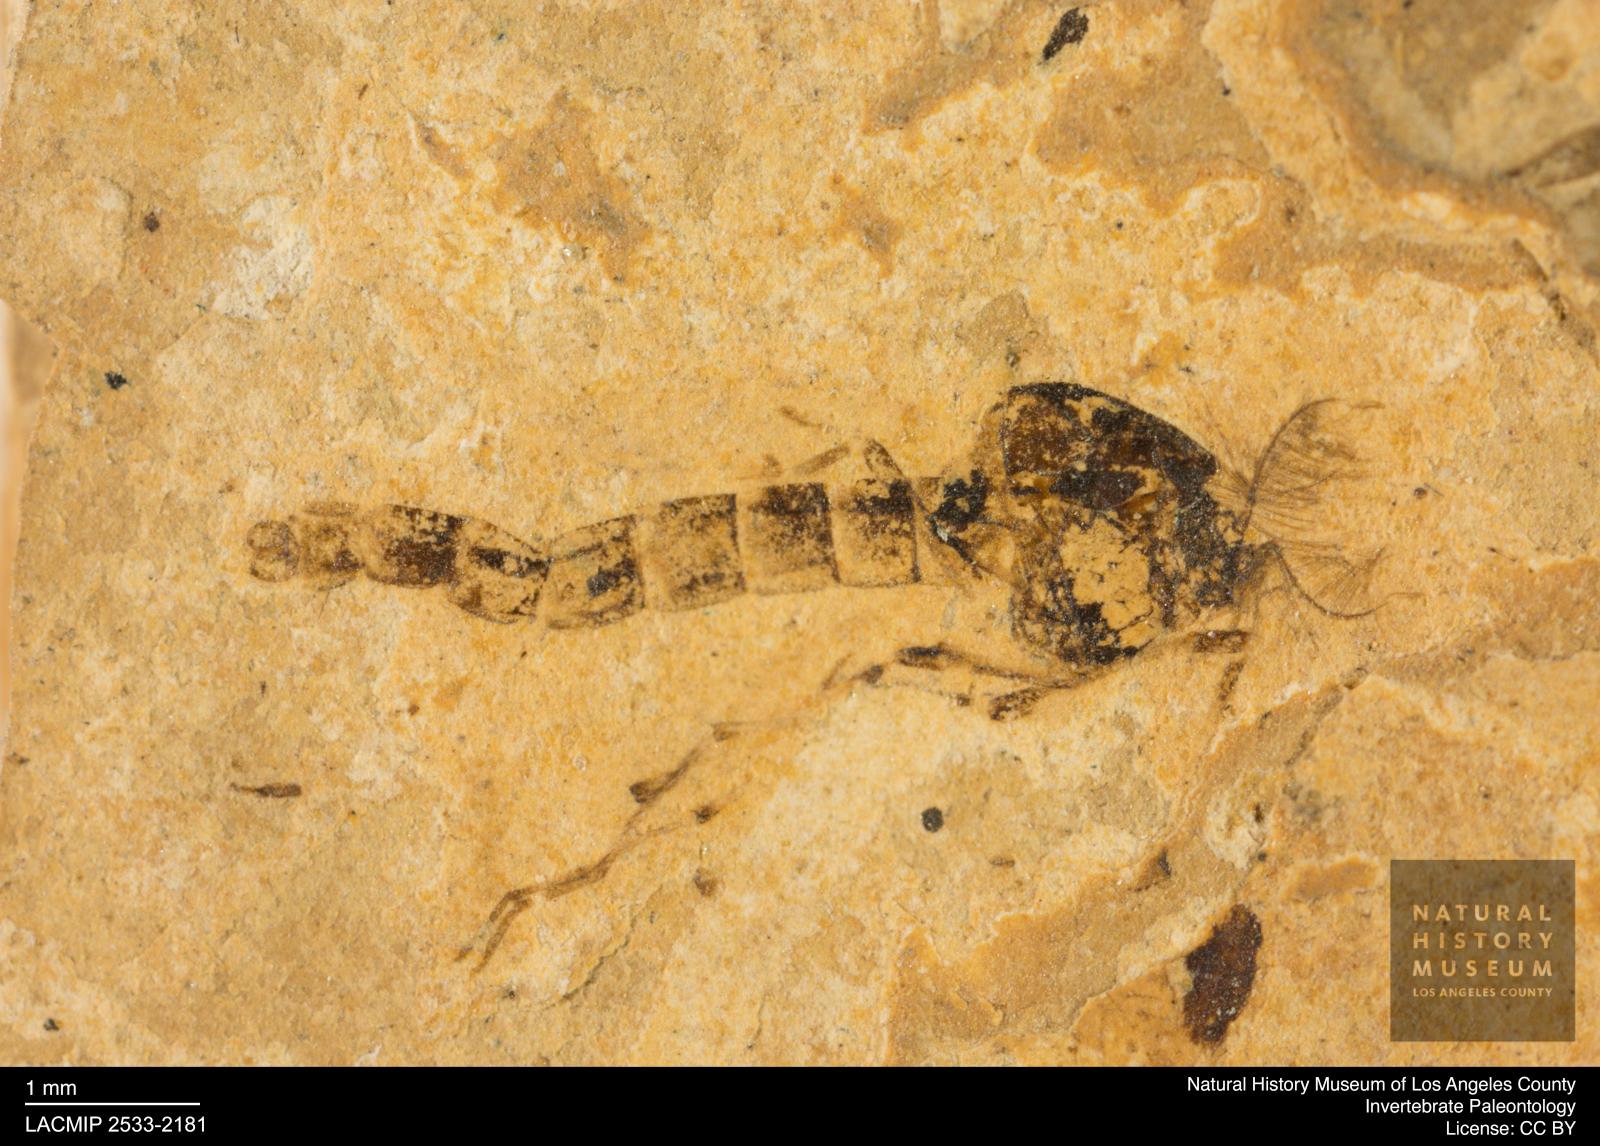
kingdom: Animalia
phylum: Arthropoda
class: Insecta
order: Diptera
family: Chironomidae
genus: Procladius
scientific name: Procladius
